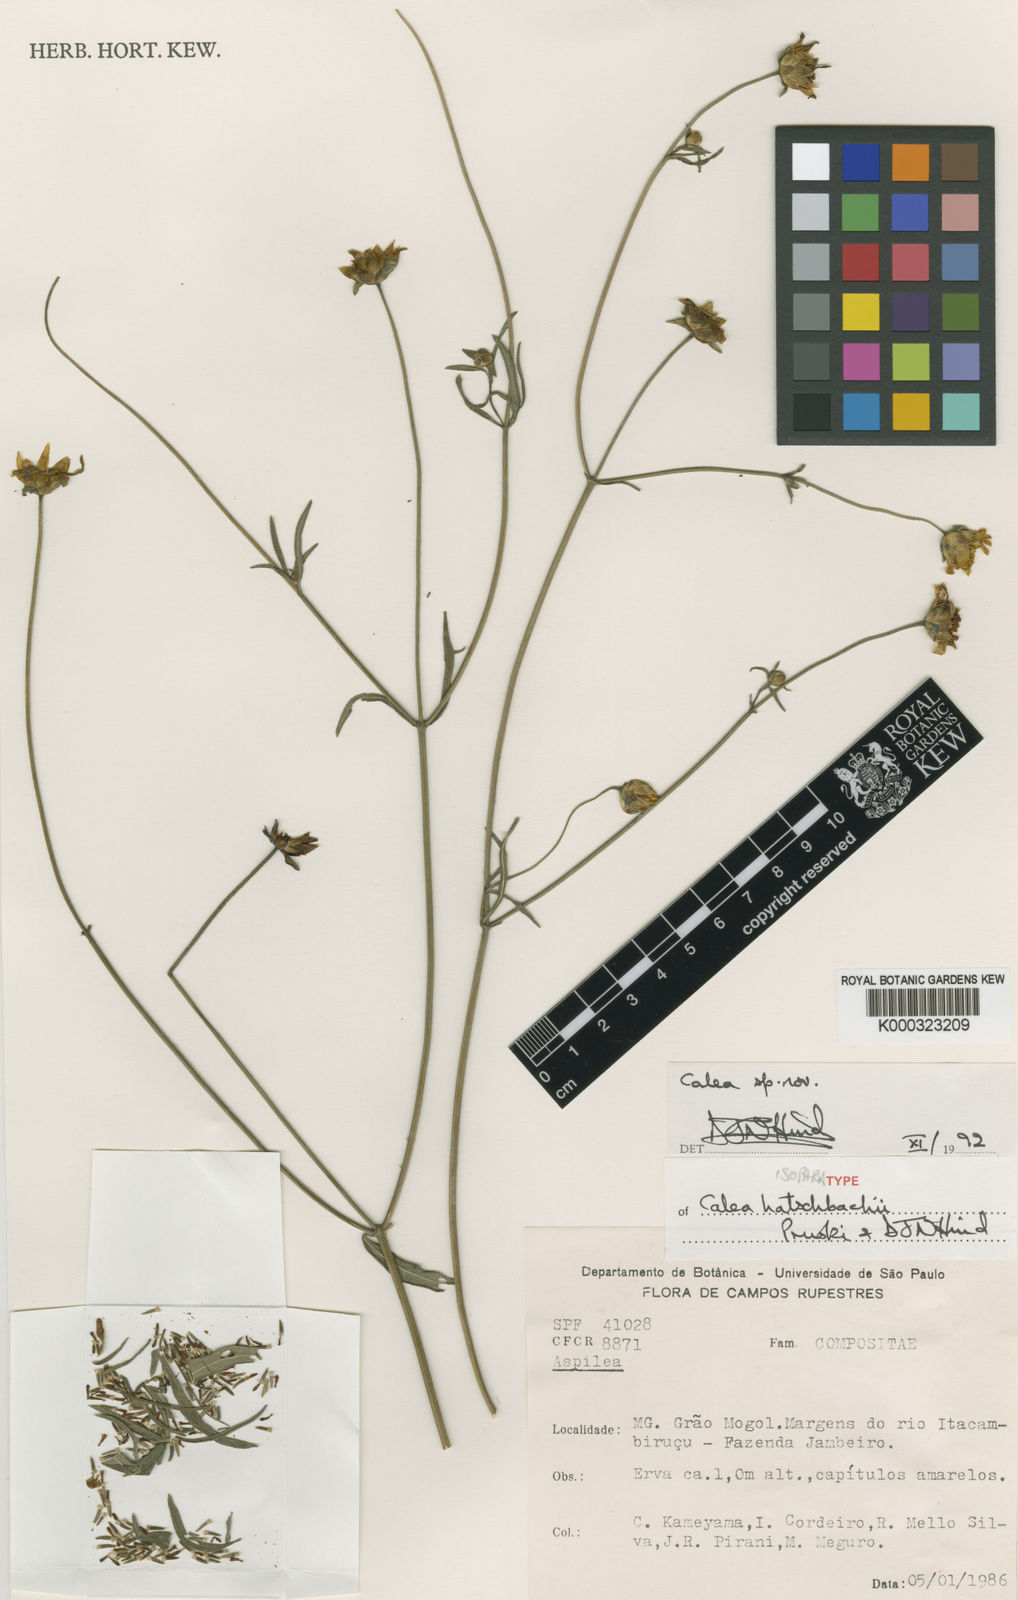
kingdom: Plantae
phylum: Tracheophyta
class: Magnoliopsida
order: Asterales
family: Asteraceae
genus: Calea
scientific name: Calea hatschbachii
